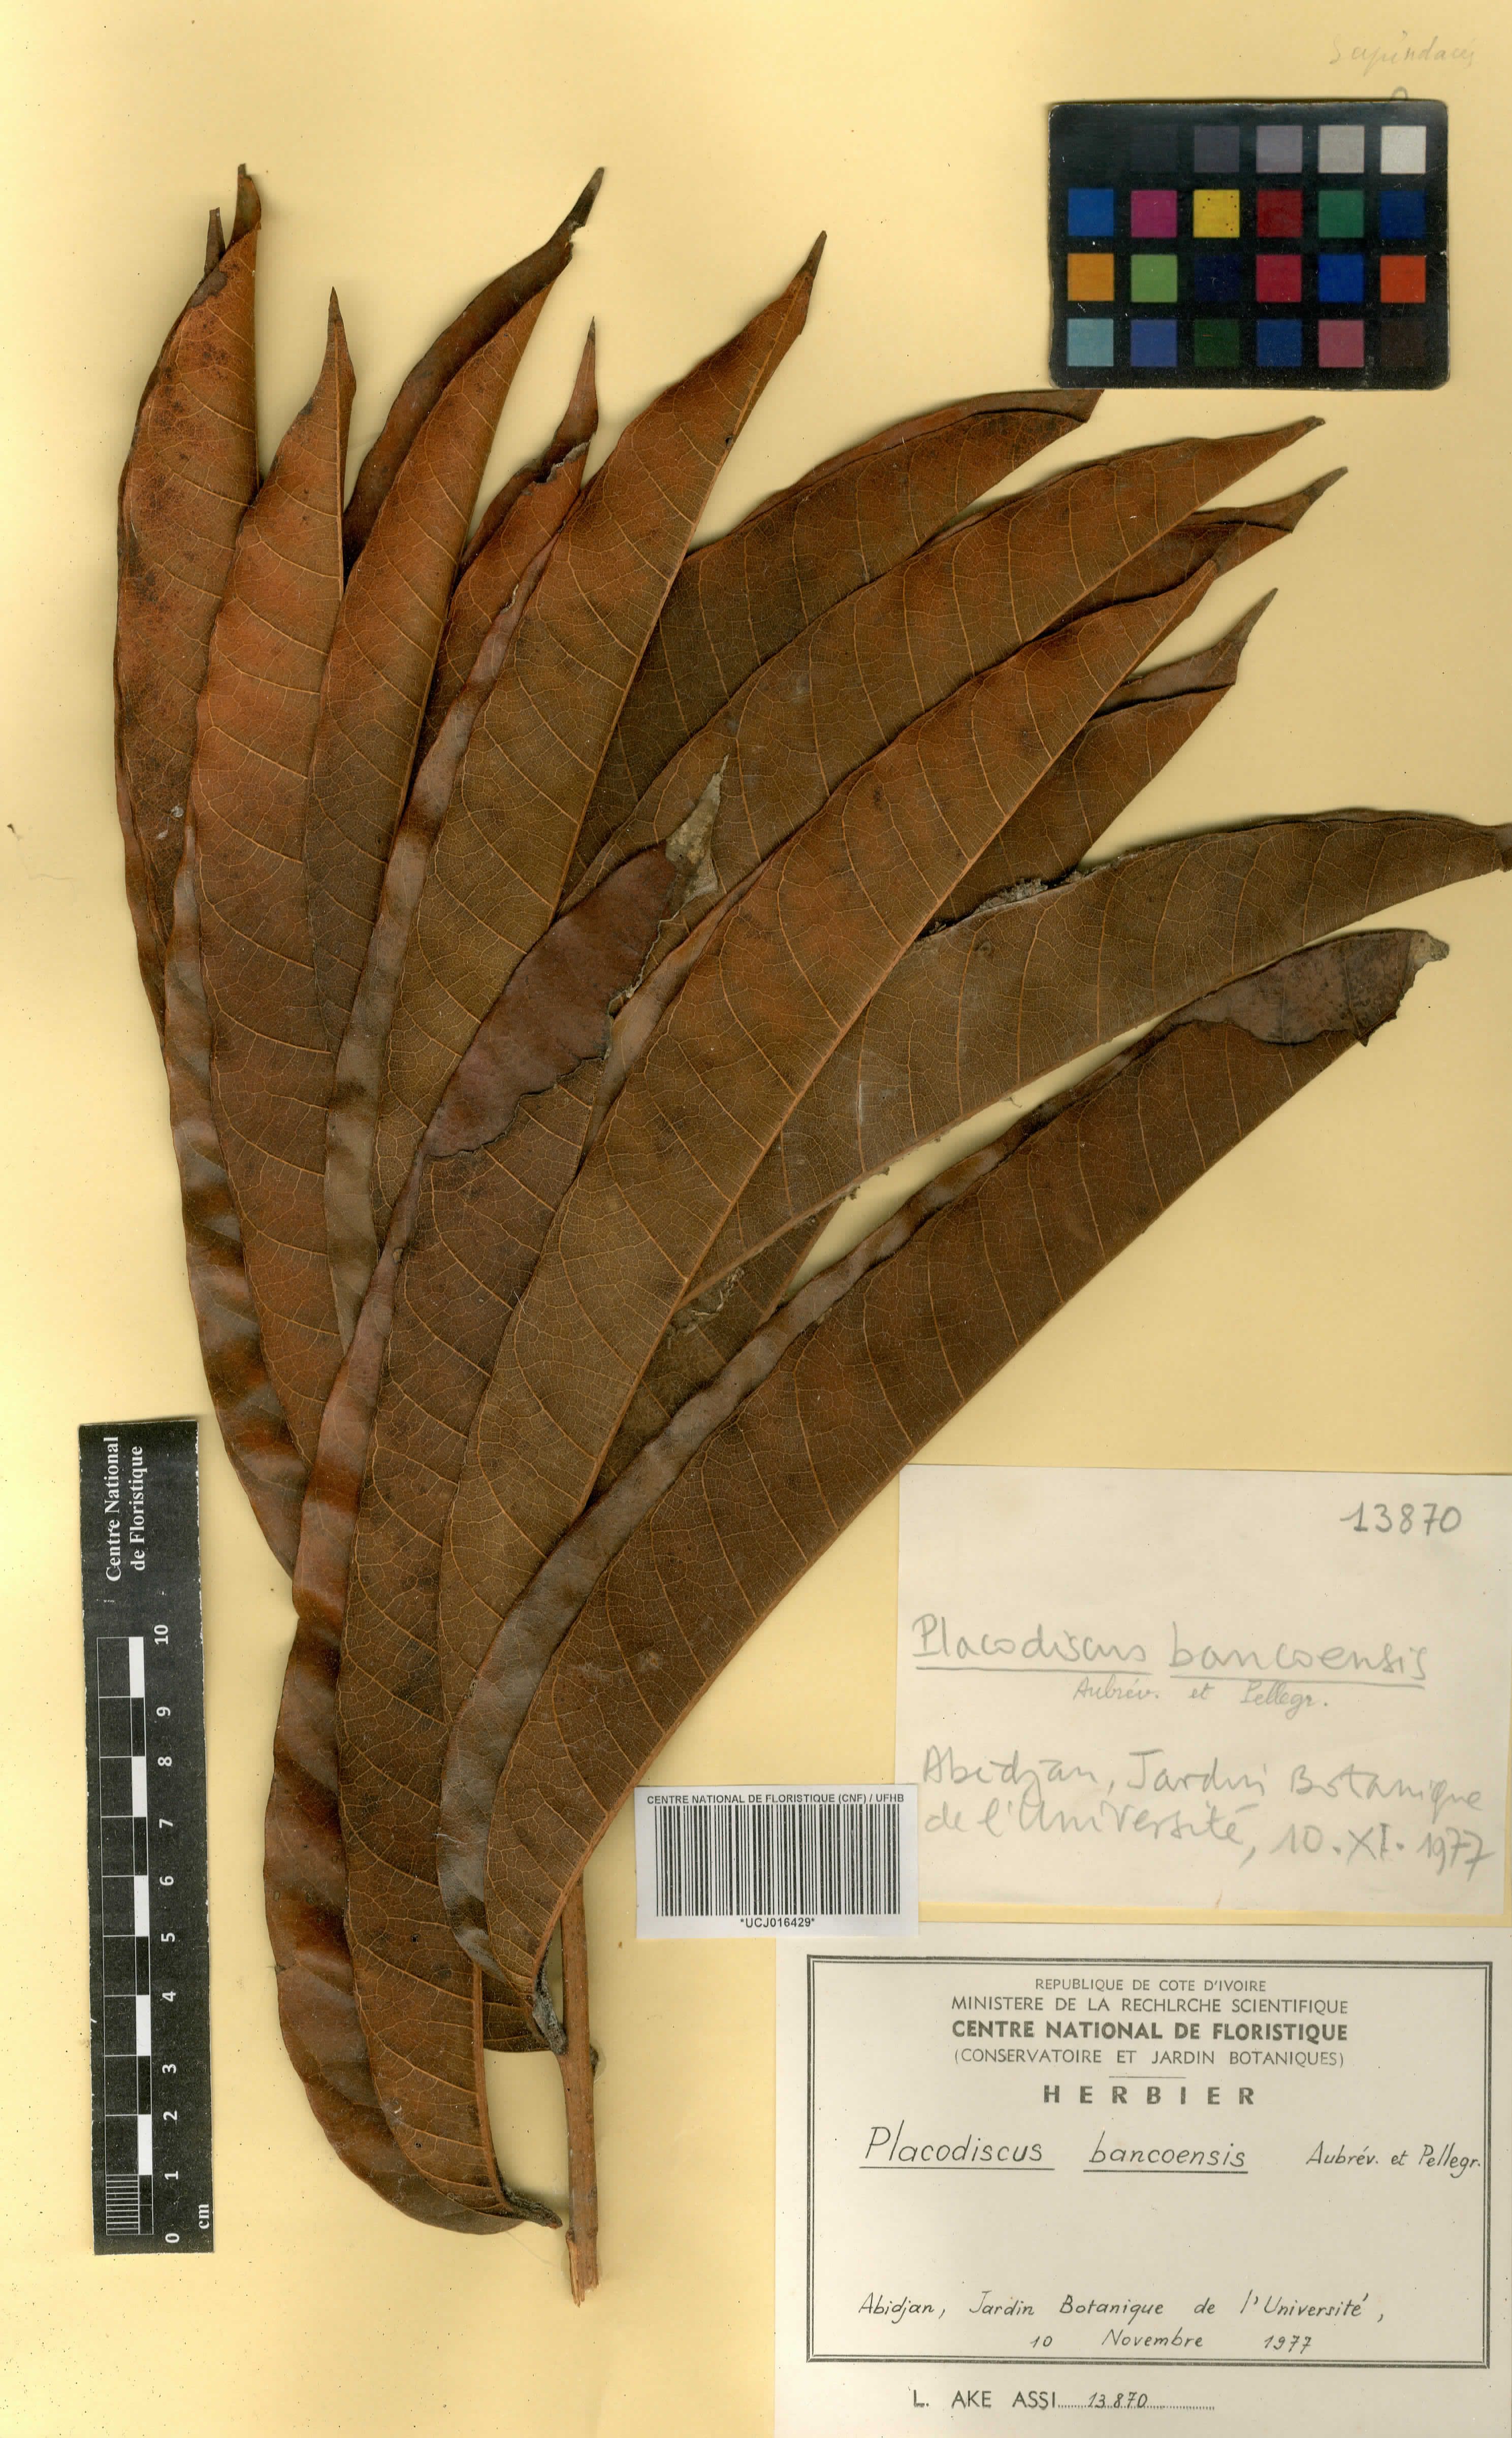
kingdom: Plantae
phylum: Tracheophyta
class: Magnoliopsida
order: Sapindales
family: Sapindaceae
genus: Placodiscus
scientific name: Placodiscus bancoensis
